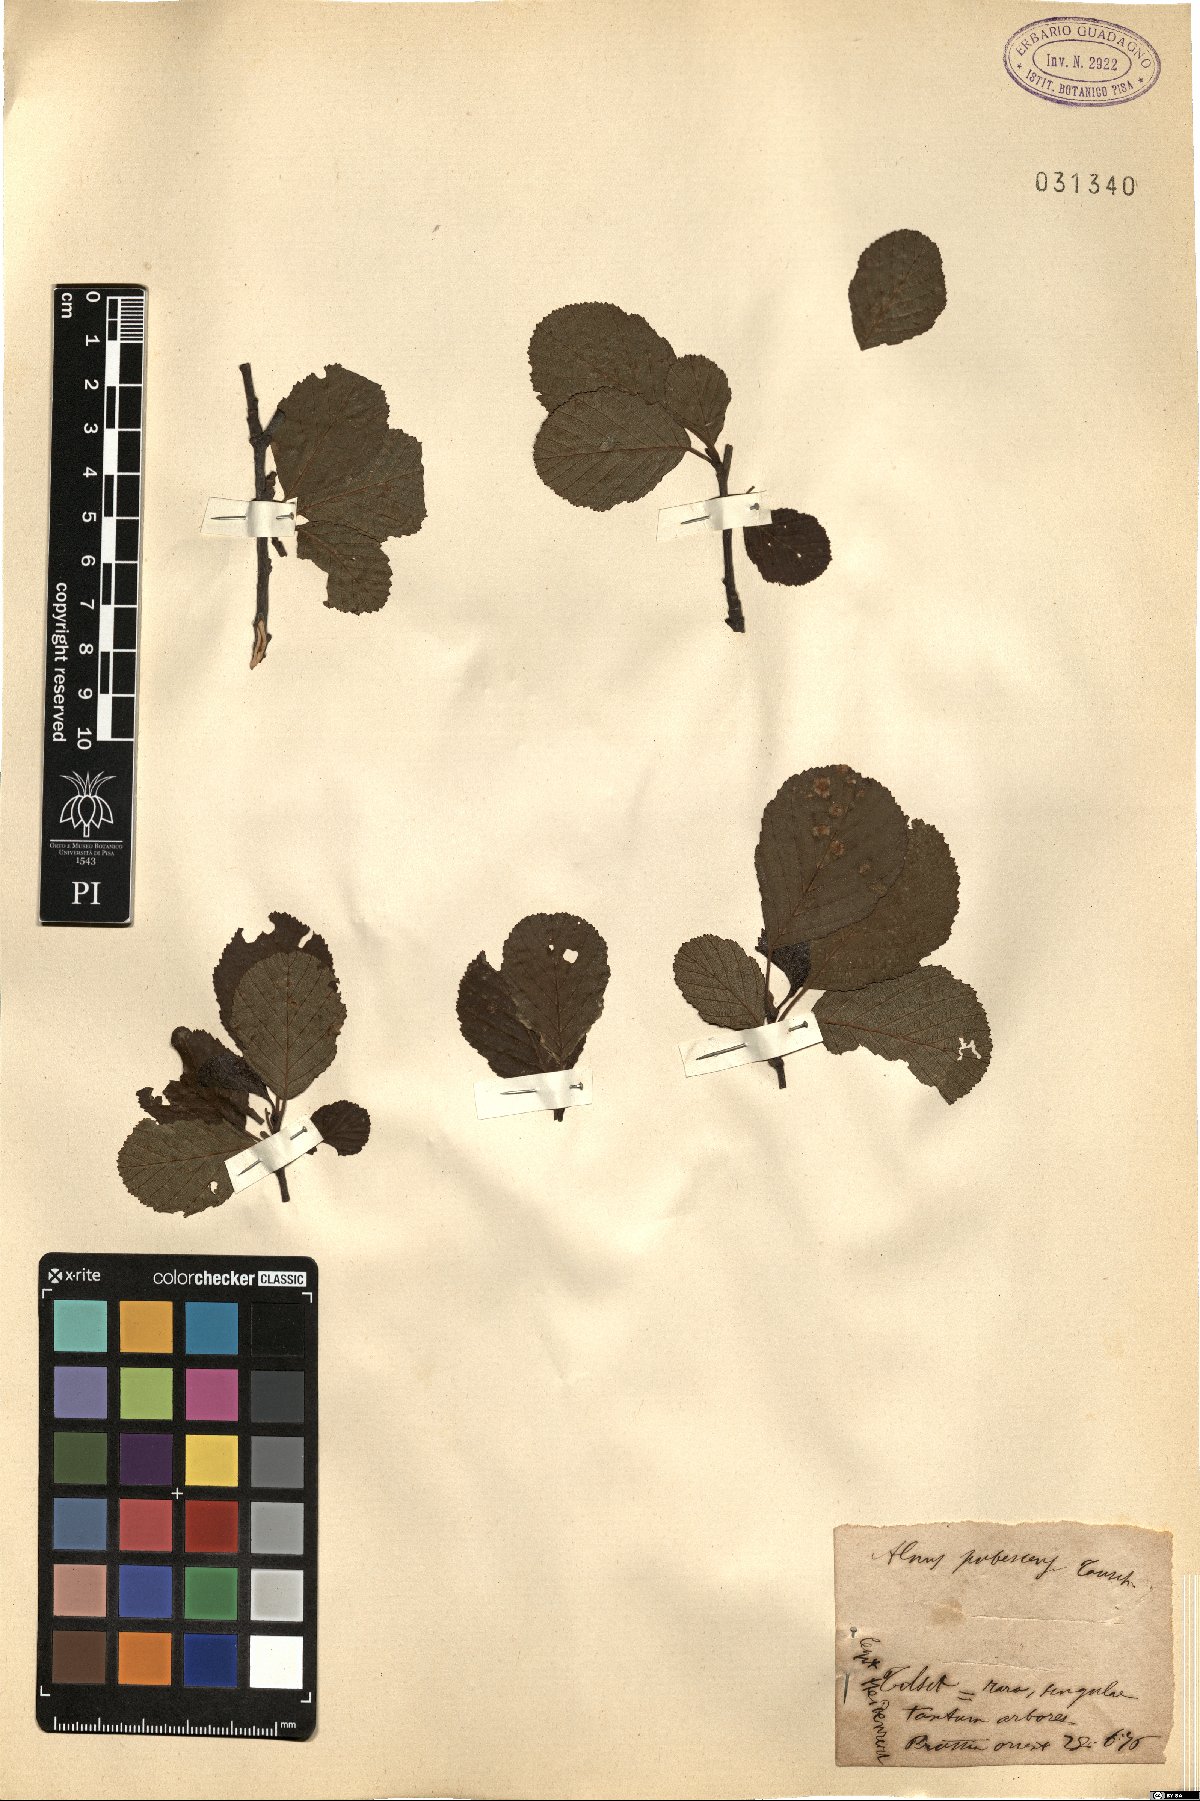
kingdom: Plantae
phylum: Tracheophyta
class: Magnoliopsida
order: Fagales
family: Betulaceae
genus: Alnus
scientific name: Alnus pubescens
